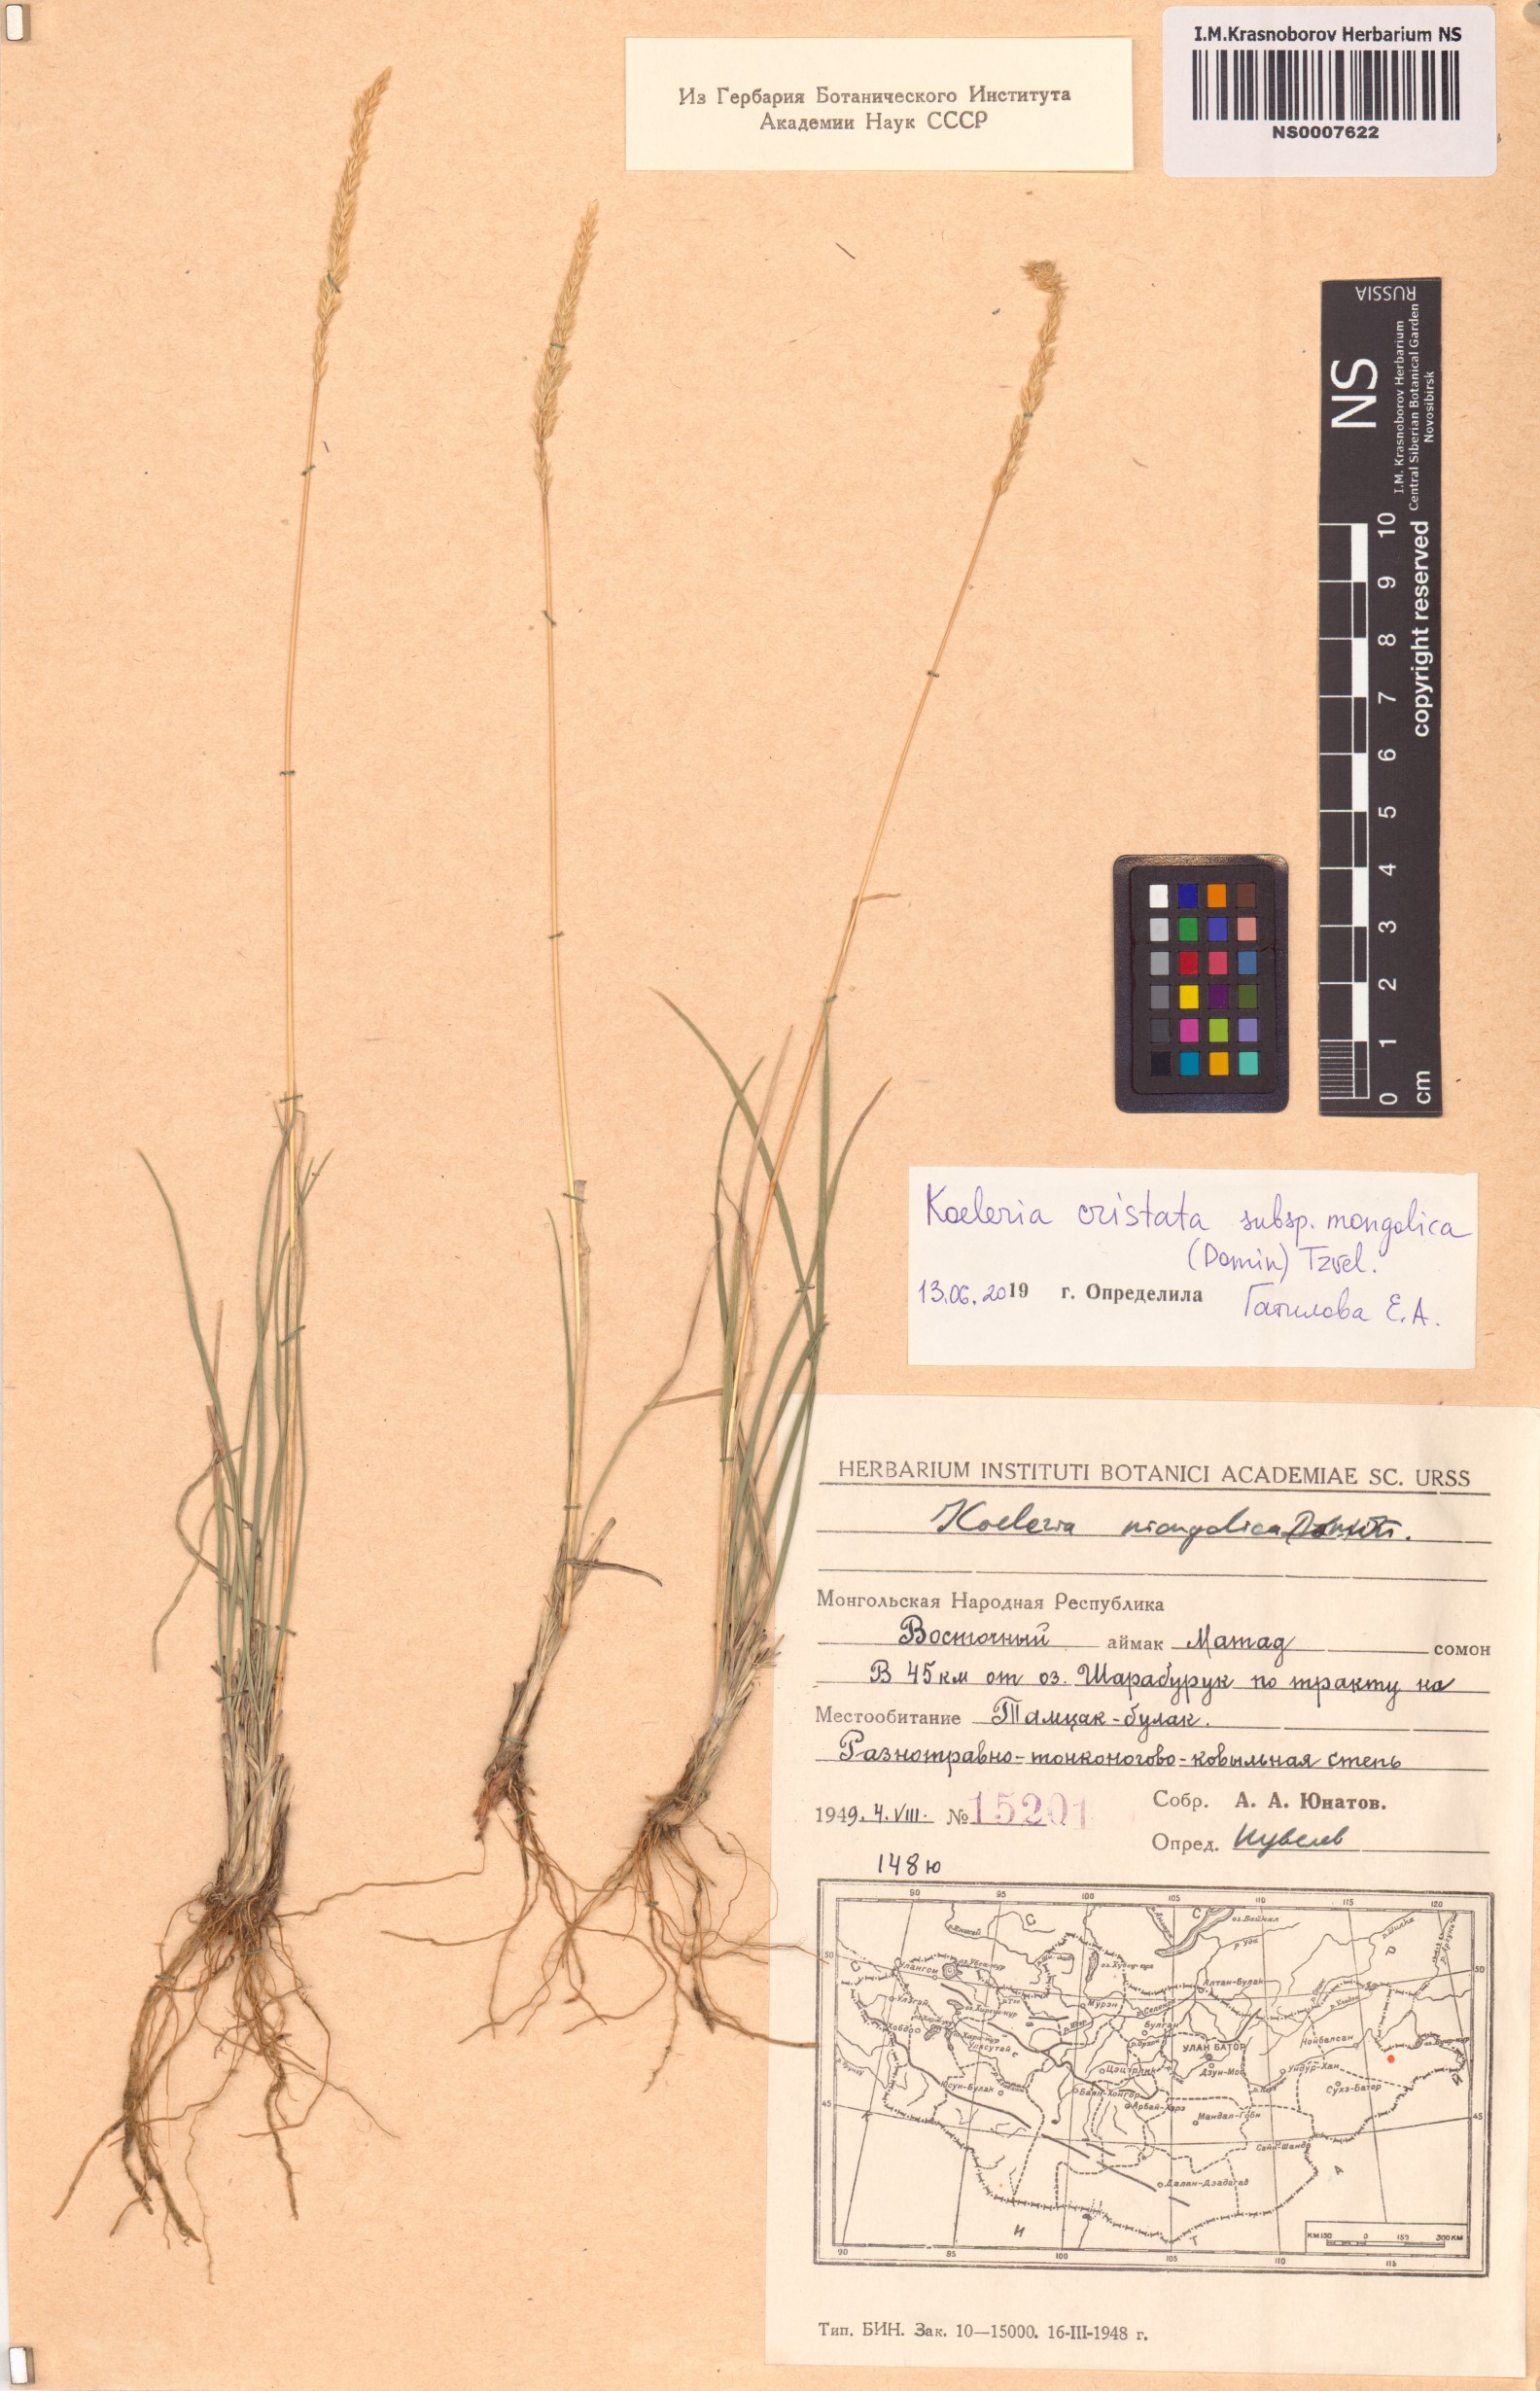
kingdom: Plantae
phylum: Tracheophyta
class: Liliopsida
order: Poales
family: Poaceae
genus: Koeleria
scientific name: Koeleria macrantha
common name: Crested hair-grass
